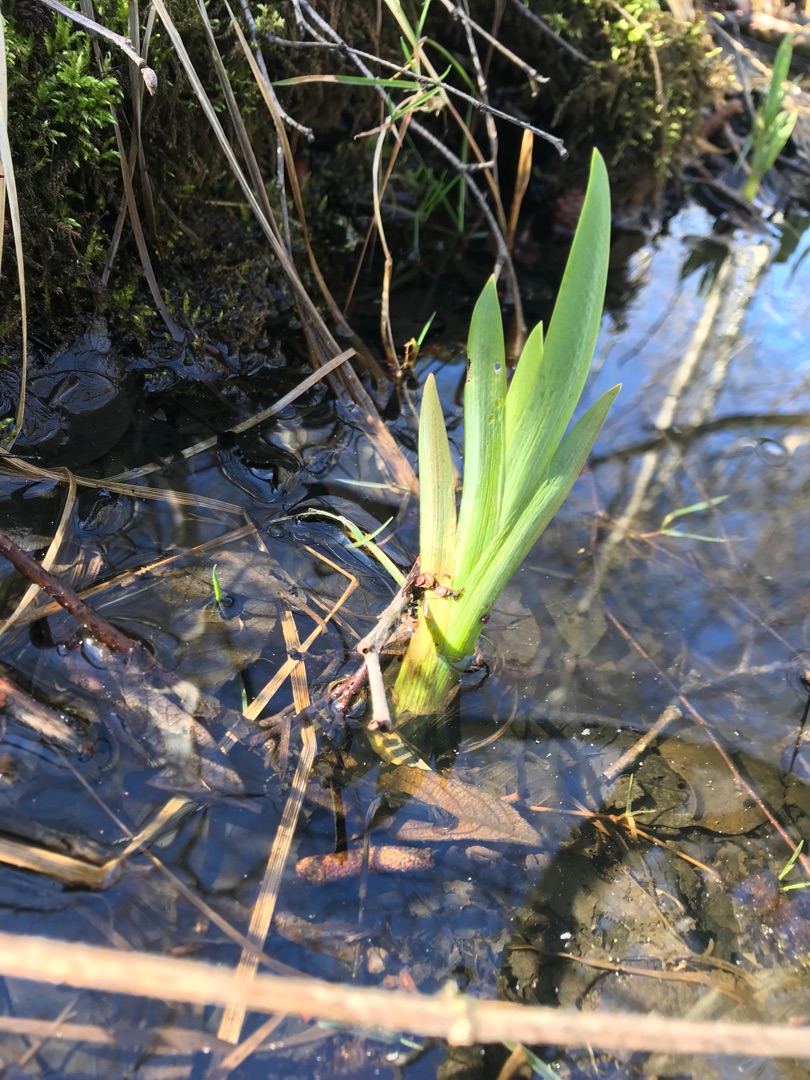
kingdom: Plantae
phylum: Tracheophyta
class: Liliopsida
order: Asparagales
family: Iridaceae
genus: Iris
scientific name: Iris pseudacorus
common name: Gul iris
